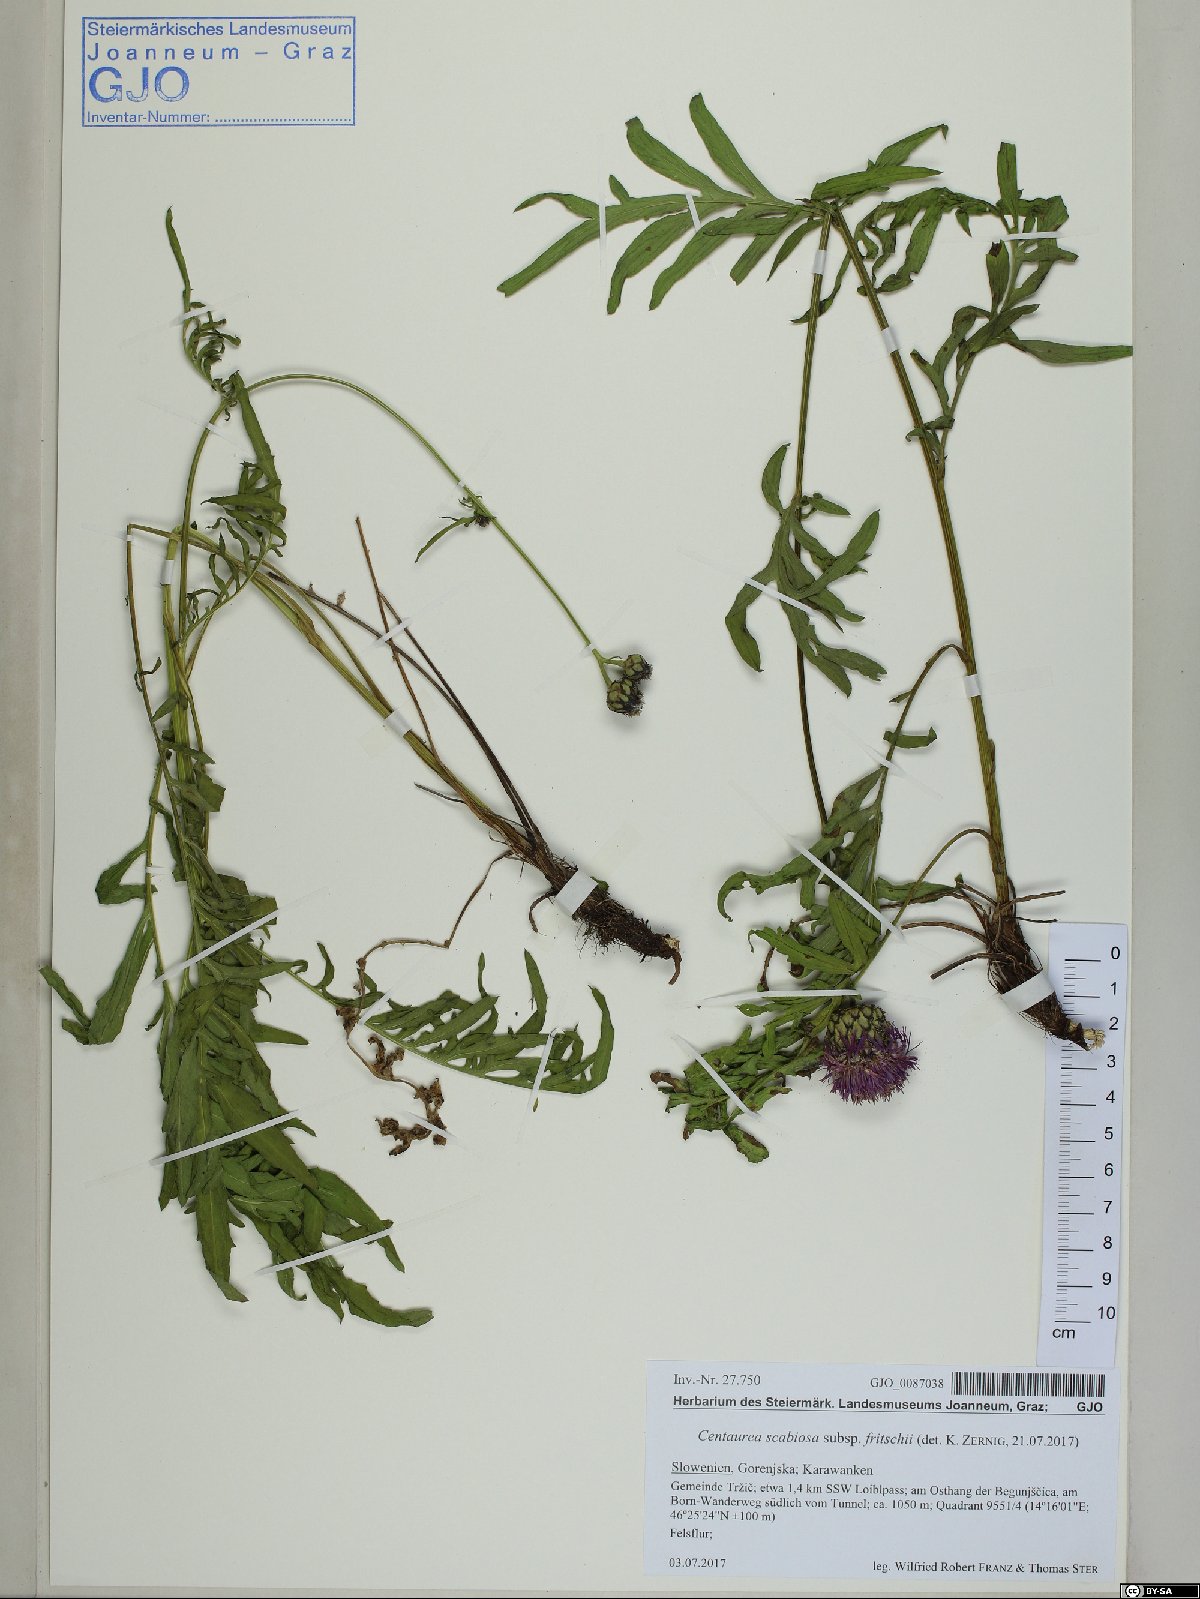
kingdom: Plantae
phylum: Tracheophyta
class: Magnoliopsida
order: Asterales
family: Asteraceae
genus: Centaurea
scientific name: Centaurea scabiosa
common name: Greater knapweed
